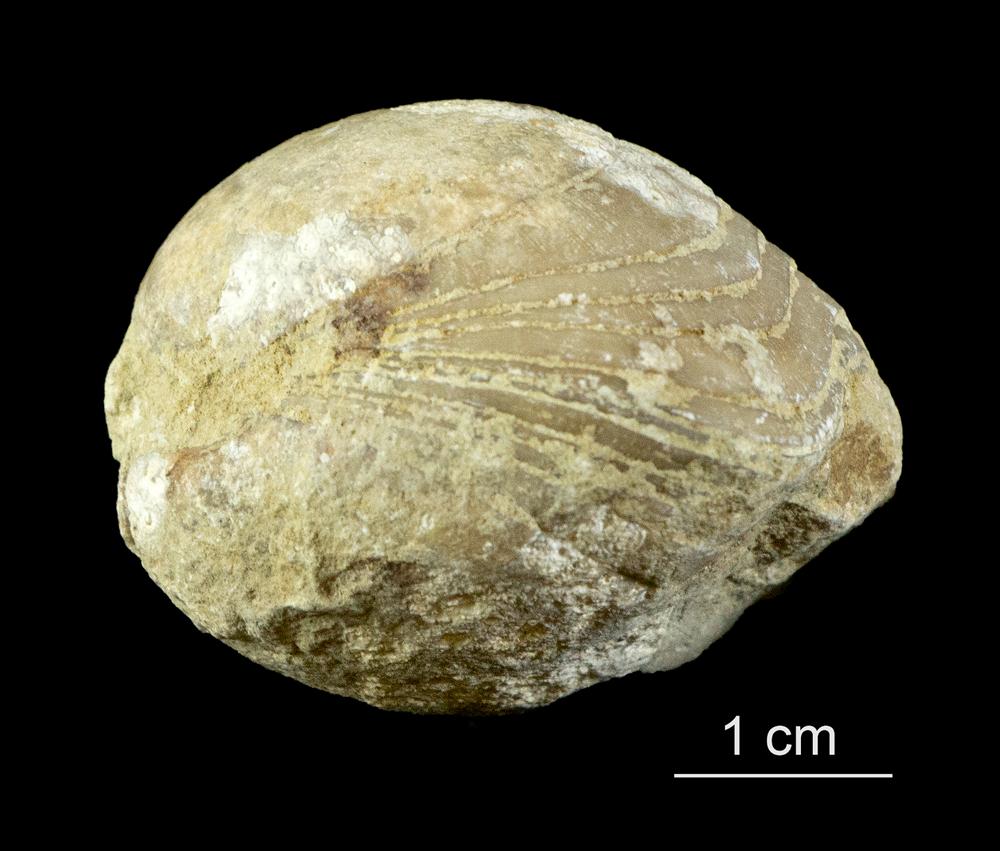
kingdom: Animalia
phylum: Brachiopoda
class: Rhynchonellata
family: Porambonitidae
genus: Porambonites
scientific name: Porambonites schmidti
